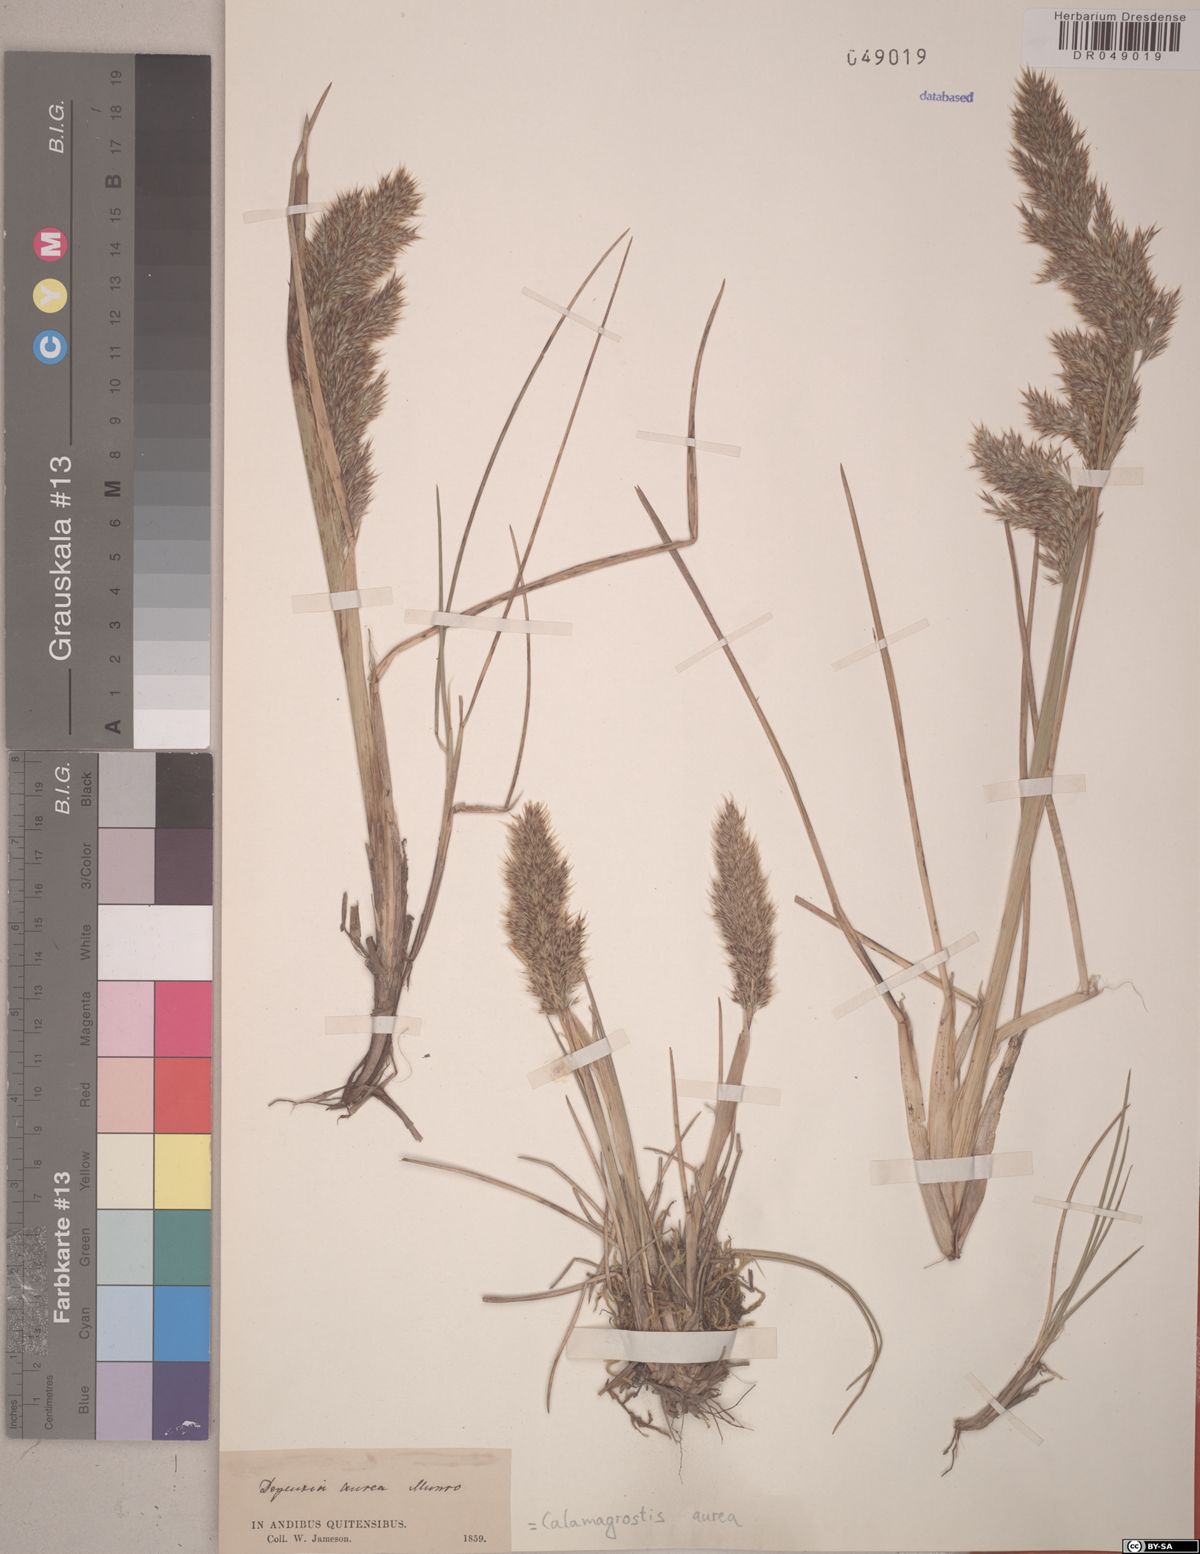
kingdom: Plantae
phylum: Tracheophyta
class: Liliopsida
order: Poales
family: Poaceae
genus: Deschampsia
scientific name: Deschampsia aurea
